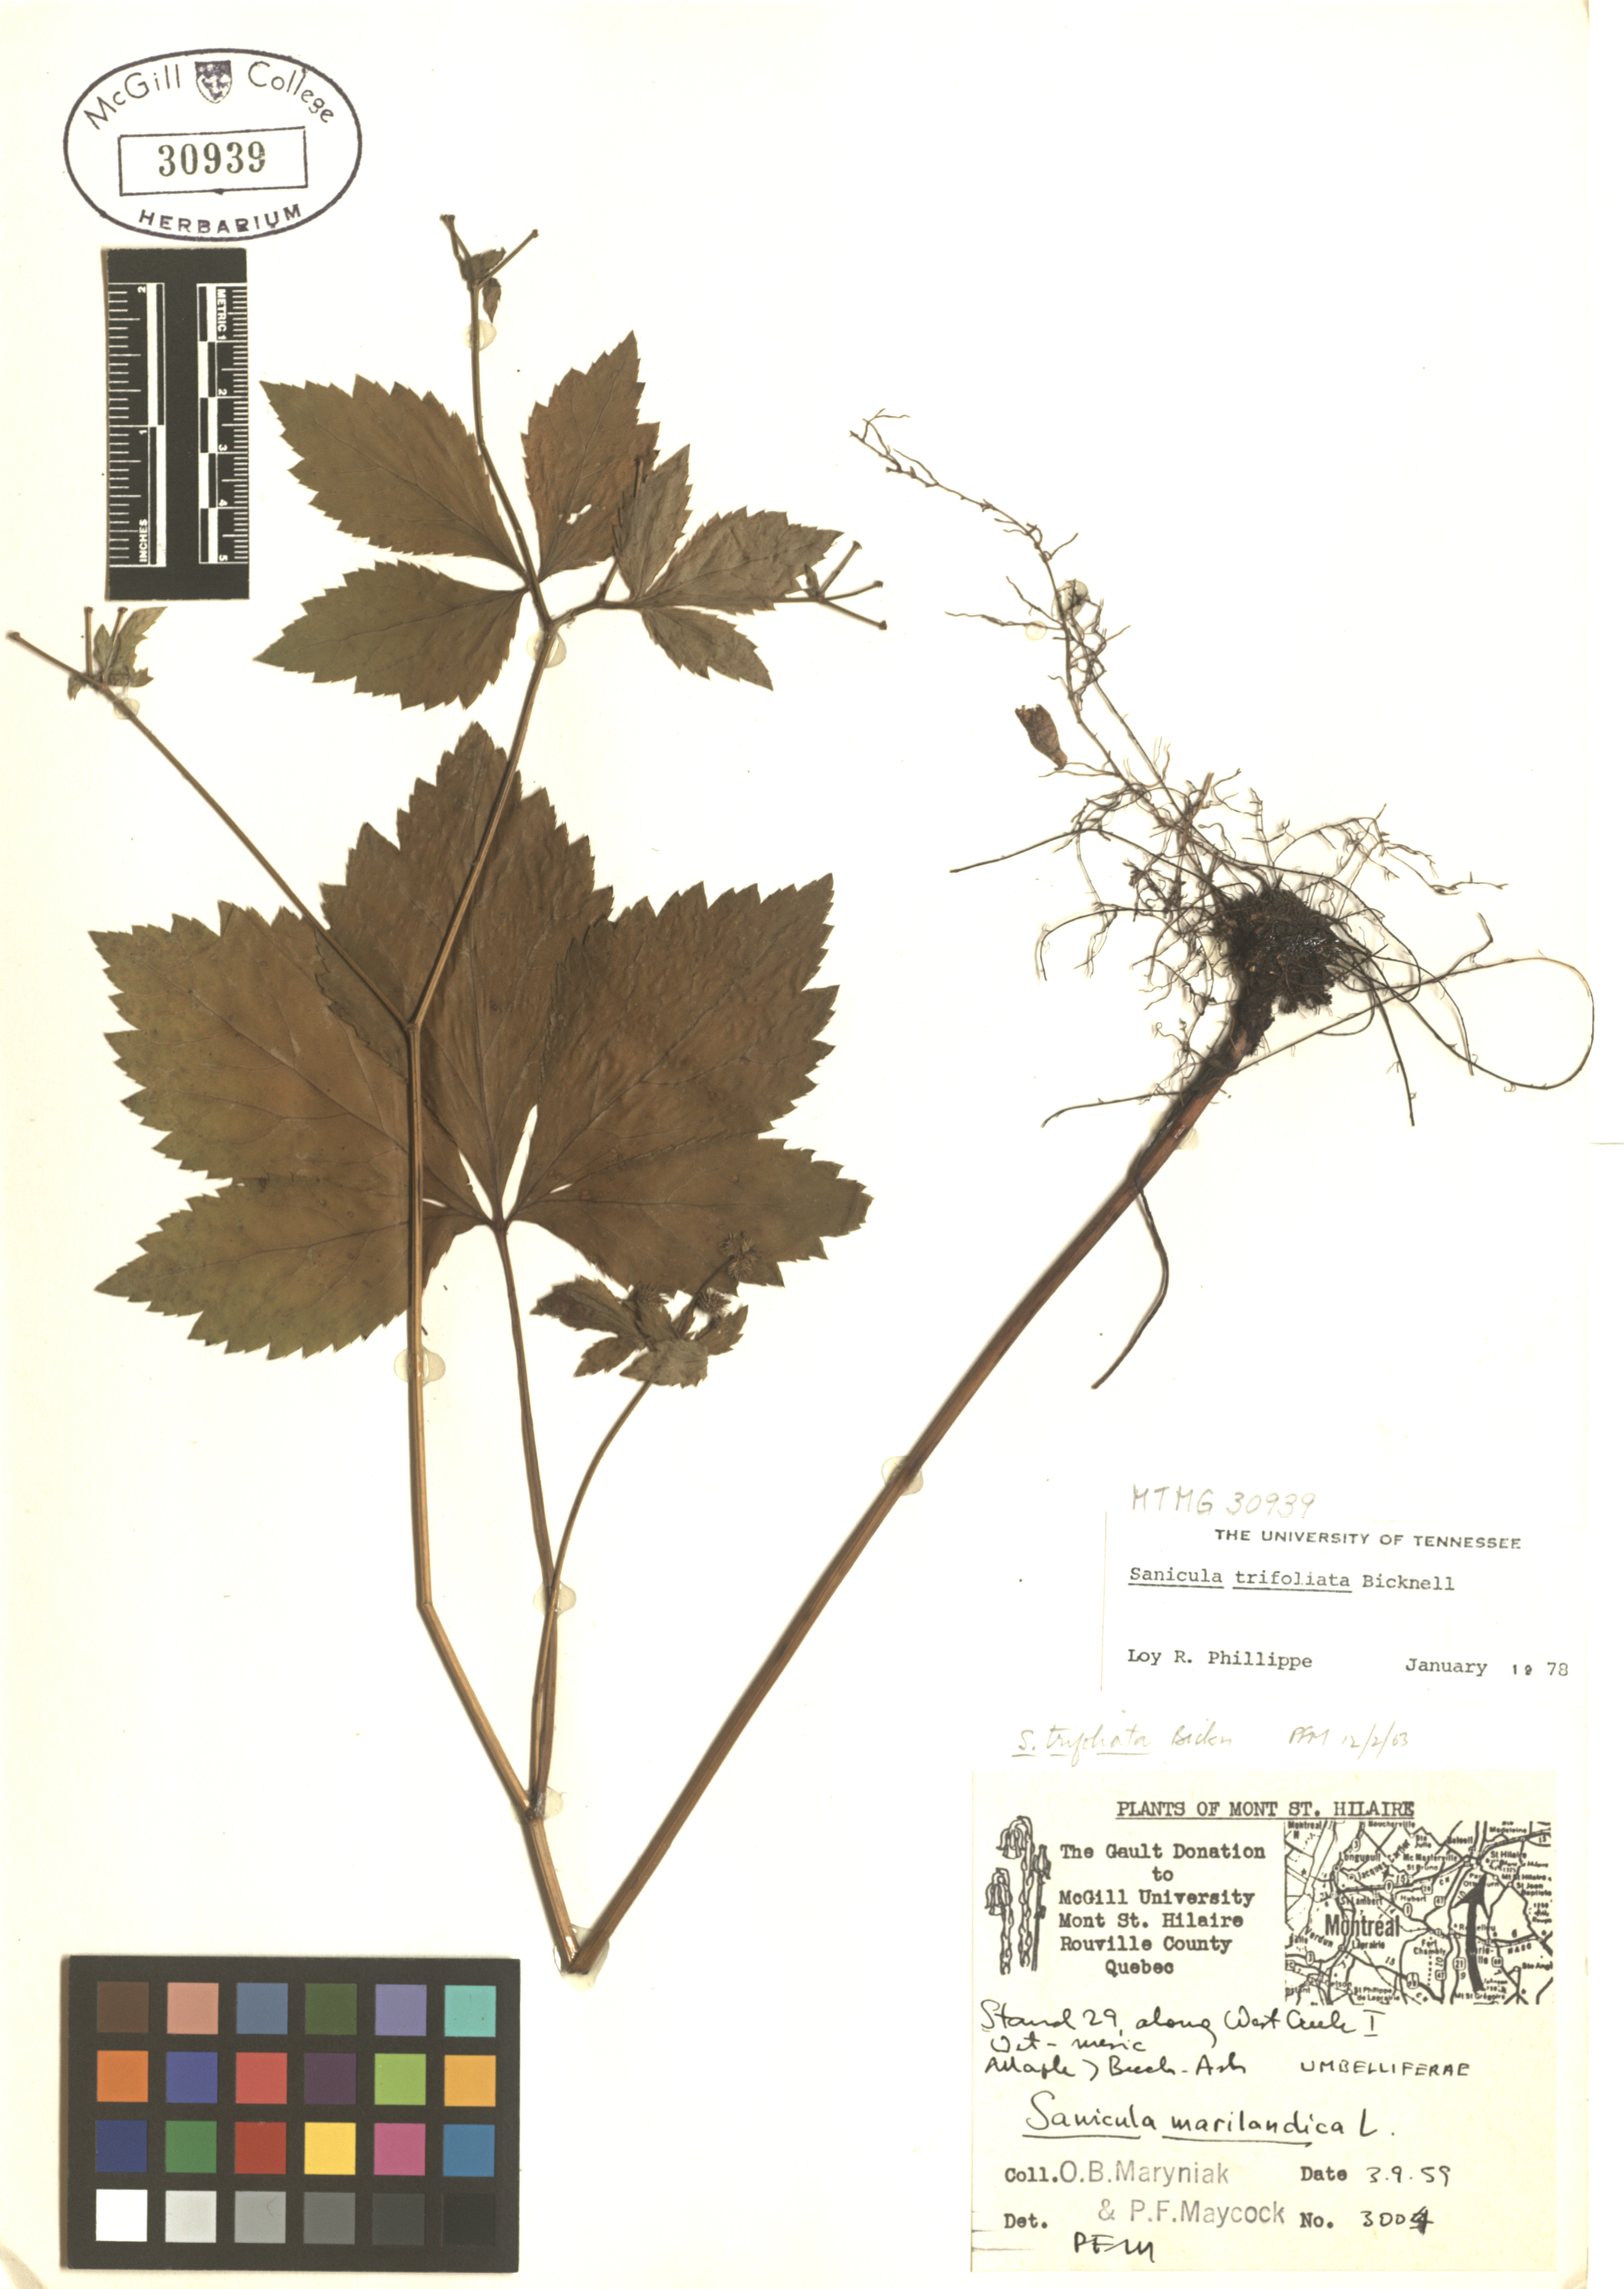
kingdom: Plantae
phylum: Tracheophyta
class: Magnoliopsida
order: Apiales
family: Apiaceae
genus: Sanicula
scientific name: Sanicula trifoliata
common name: Beaked sanicle
